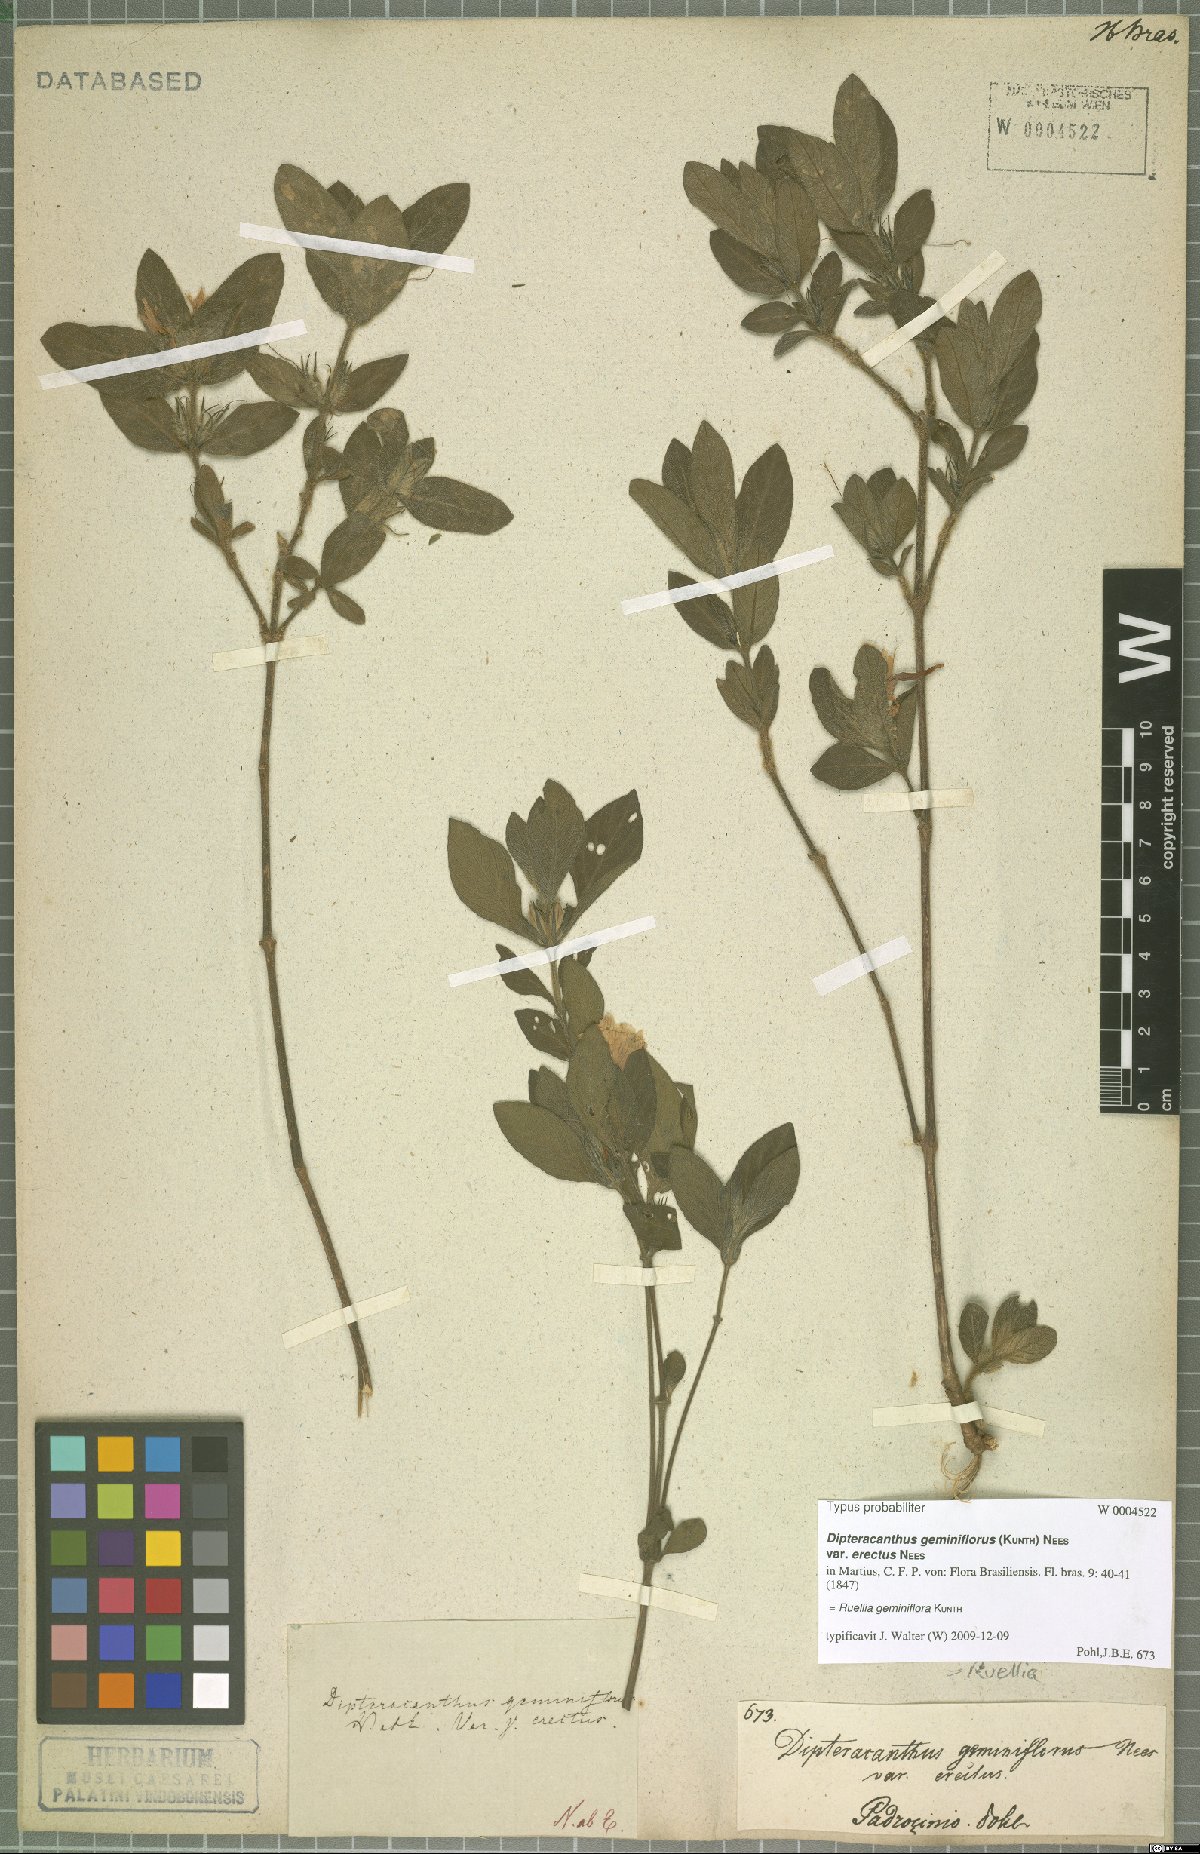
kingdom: Plantae
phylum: Tracheophyta
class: Magnoliopsida
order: Lamiales
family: Acanthaceae
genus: Ruellia
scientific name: Ruellia geminiflora
